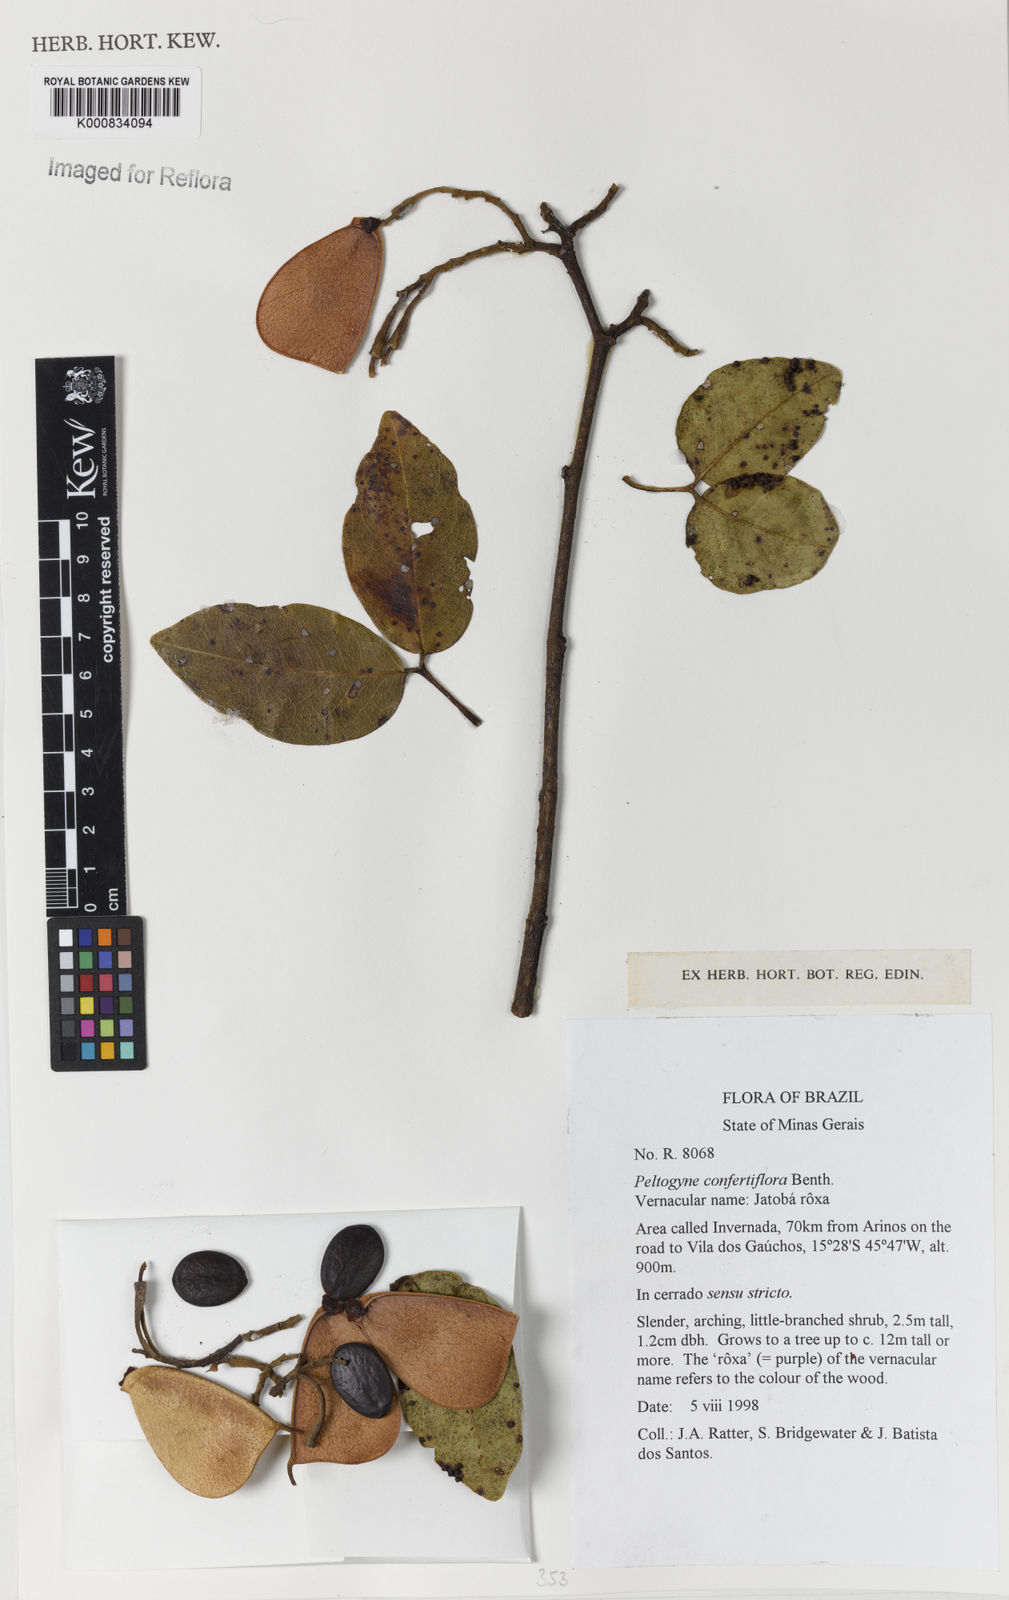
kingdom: Plantae
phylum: Tracheophyta
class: Magnoliopsida
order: Fabales
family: Fabaceae
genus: Peltogyne
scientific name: Peltogyne confertiflora
